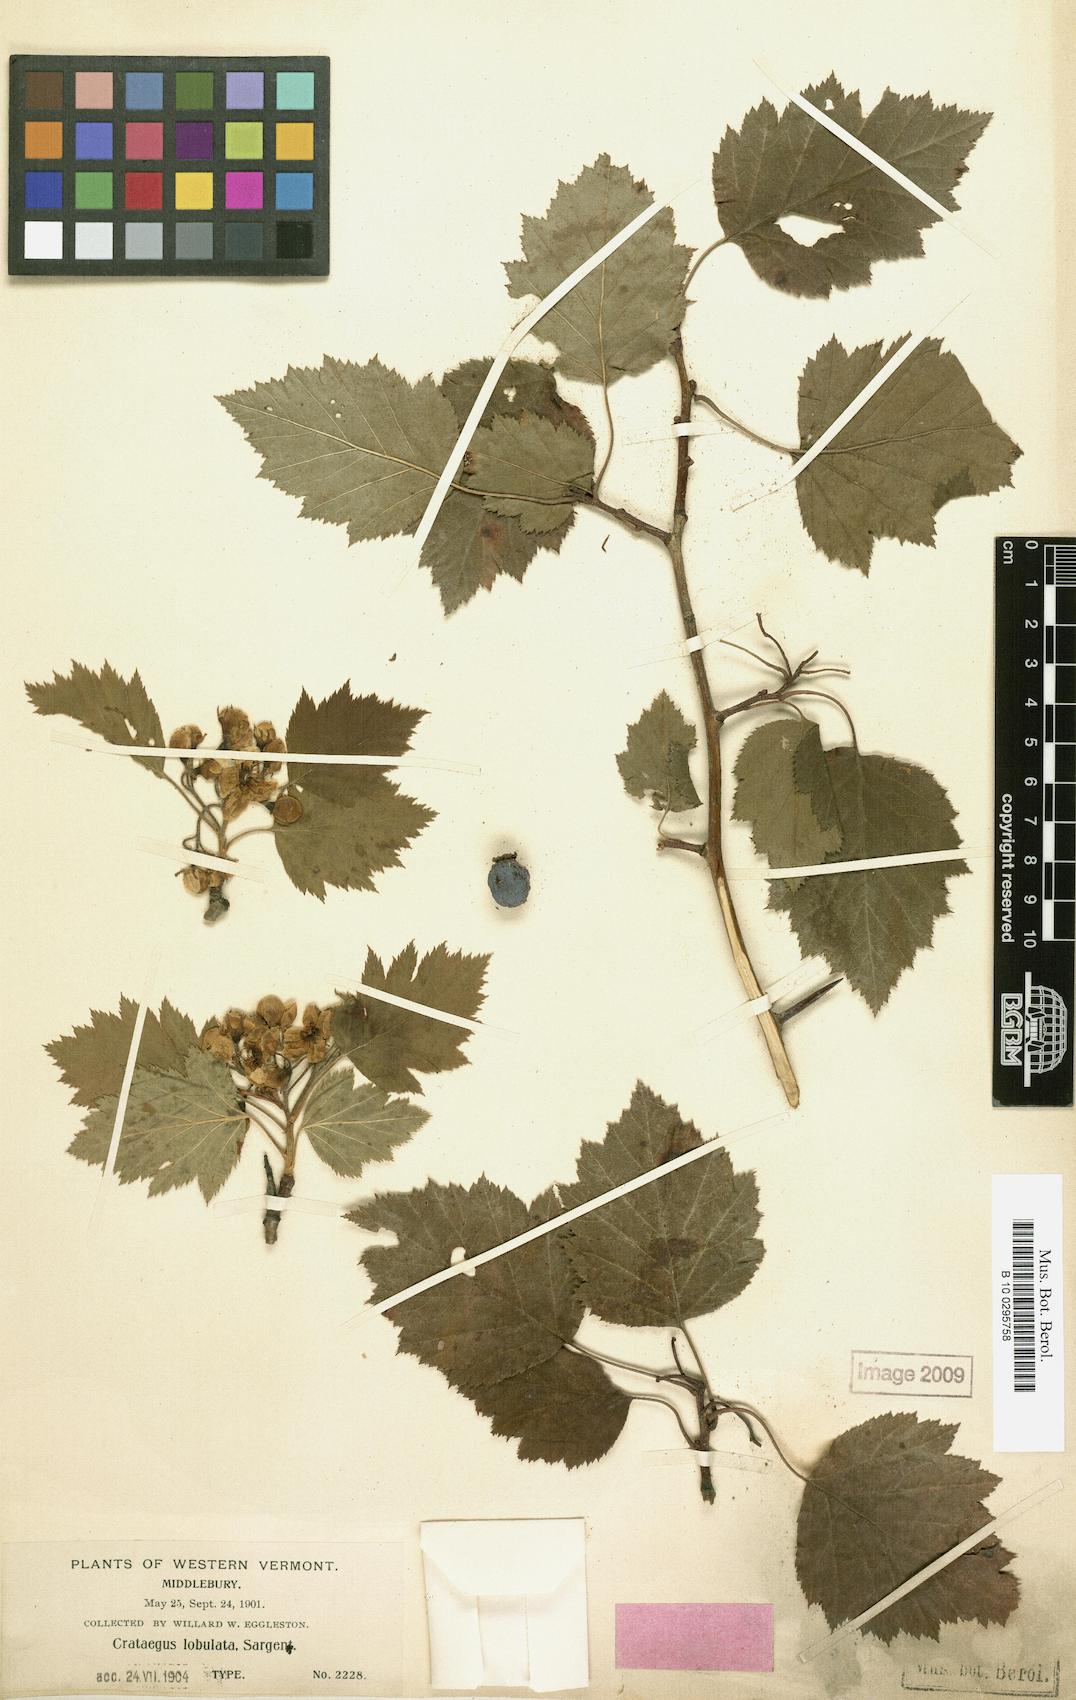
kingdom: Plantae
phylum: Tracheophyta
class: Magnoliopsida
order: Rosales
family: Rosaceae
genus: Crataegus
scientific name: Crataegus coccinea
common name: Scarlet hawthorn
